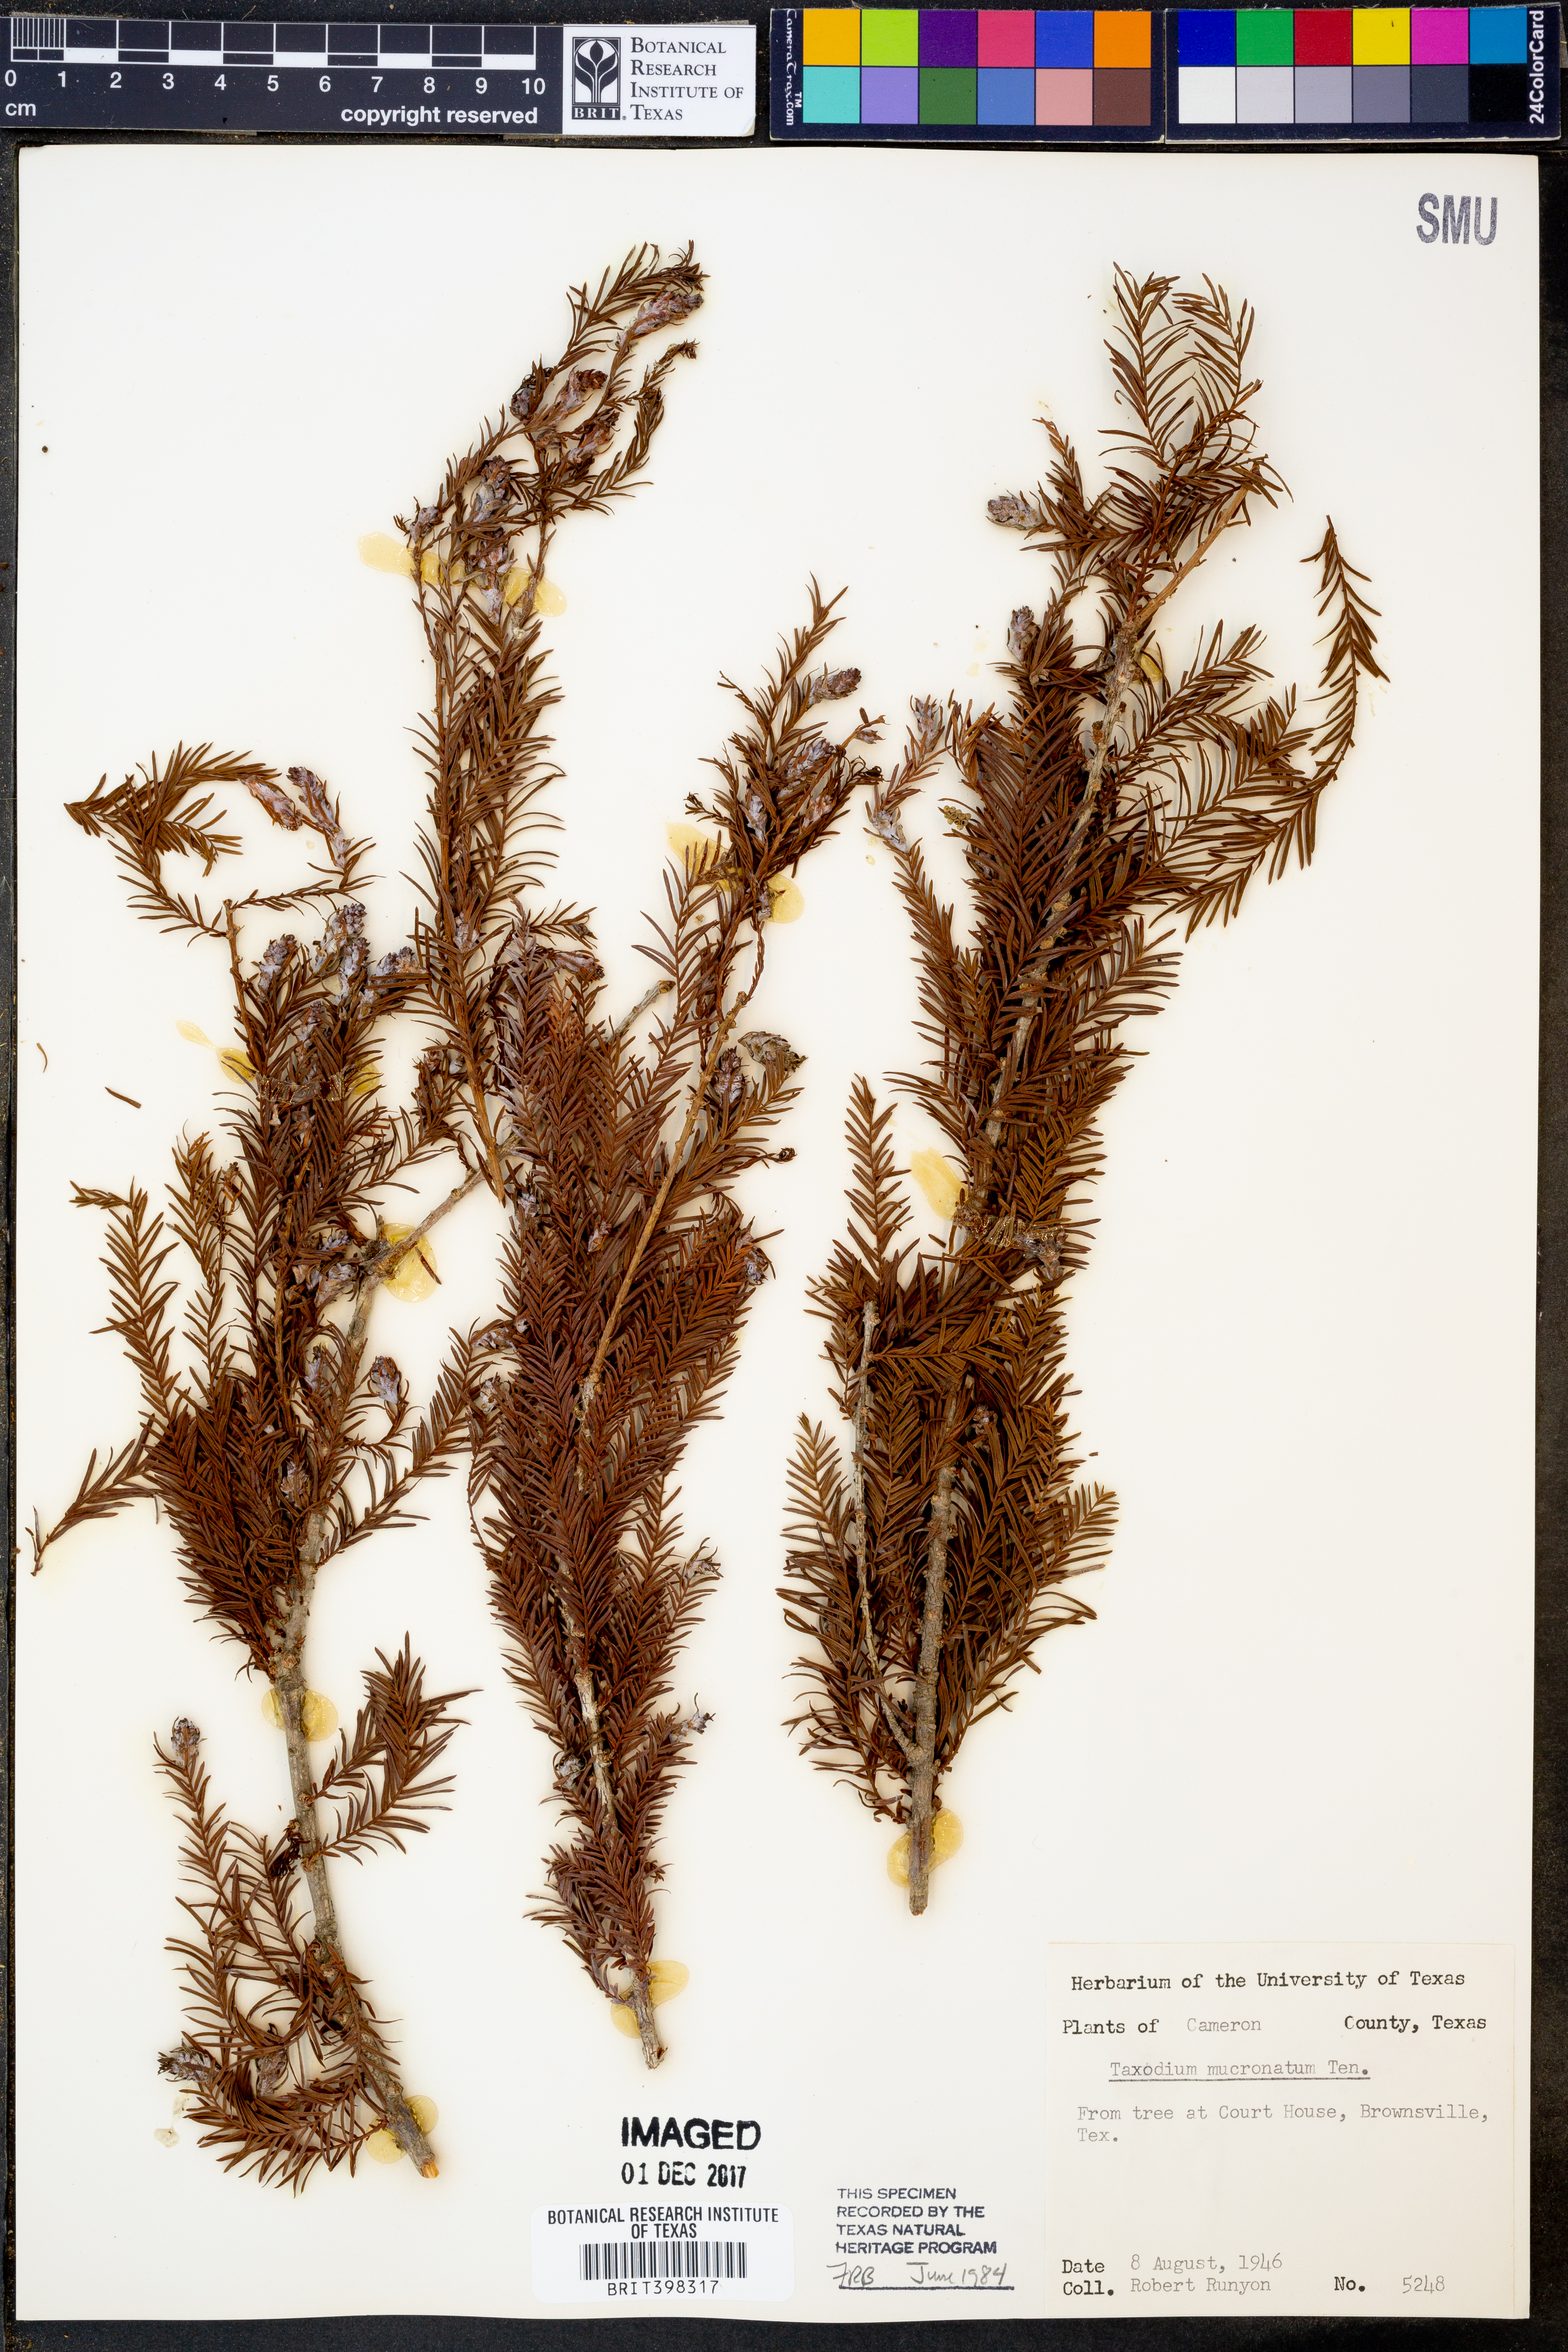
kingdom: Plantae
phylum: Tracheophyta
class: Pinopsida
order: Pinales
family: Cupressaceae
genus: Taxodium
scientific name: Taxodium mucronatum
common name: Montezume bald cypress
